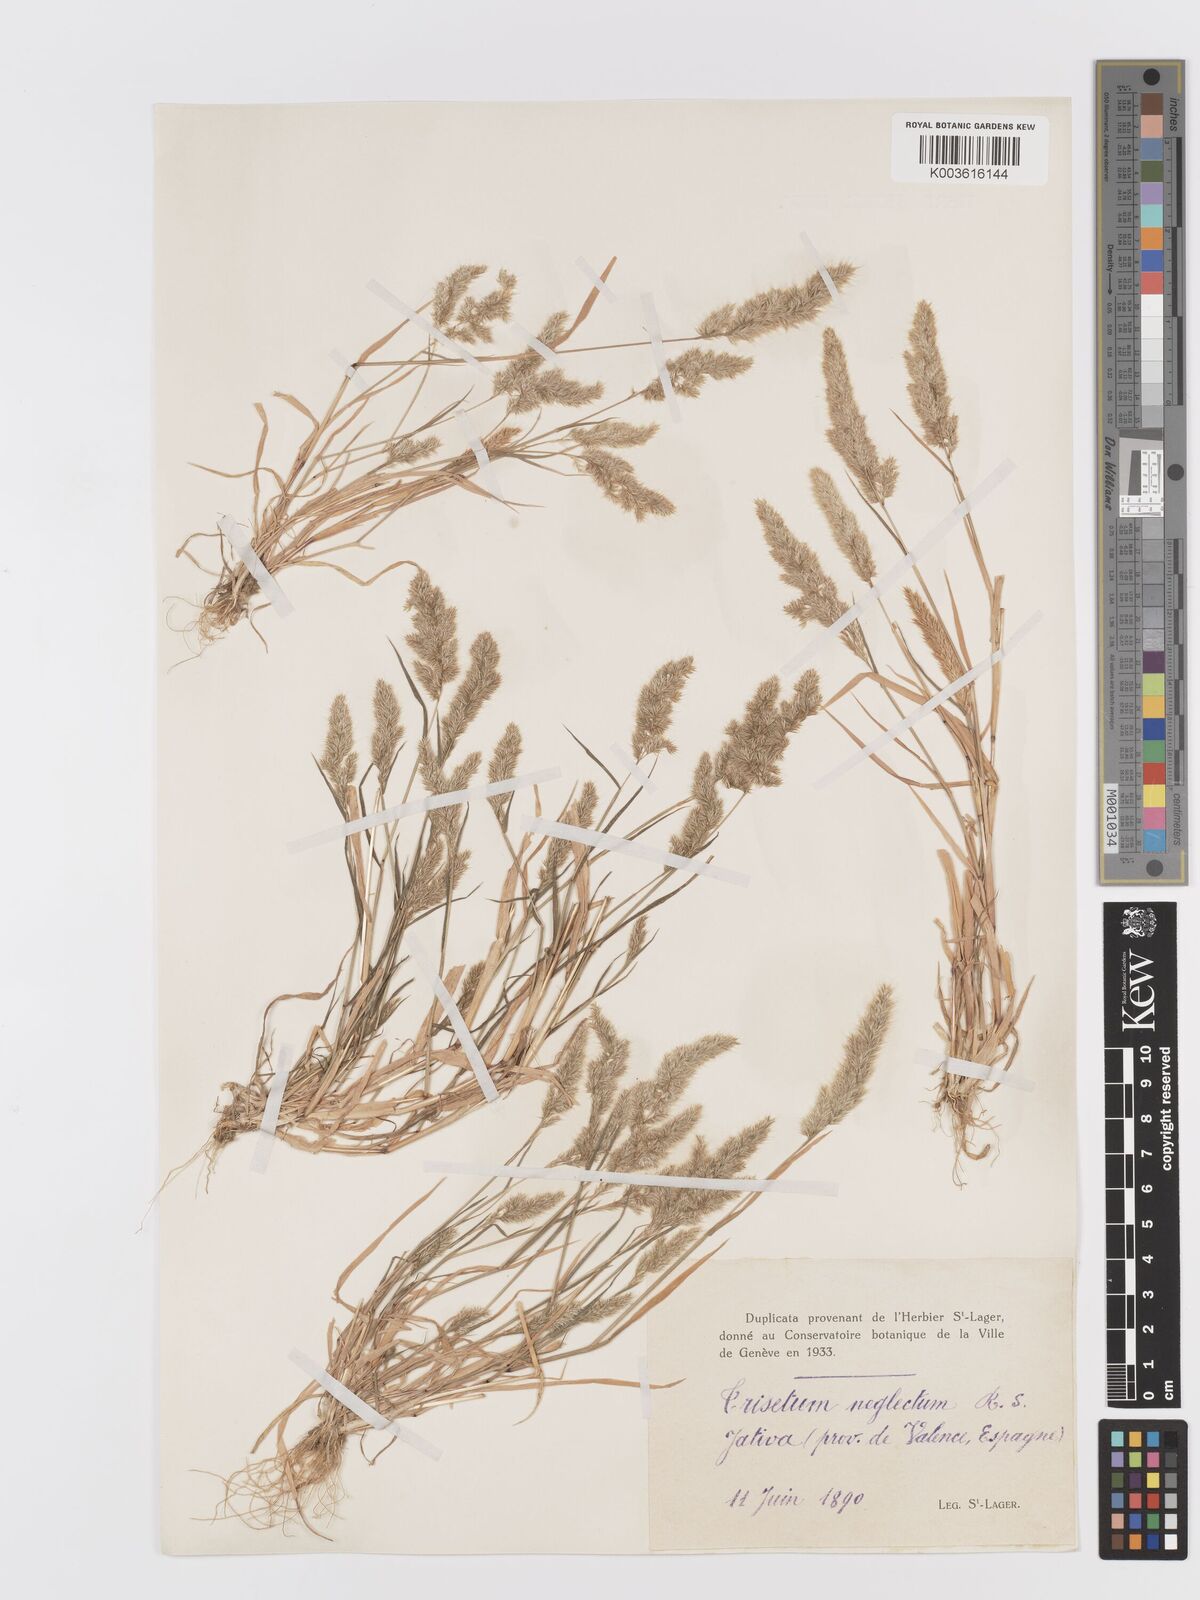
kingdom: Plantae
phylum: Tracheophyta
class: Liliopsida
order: Poales
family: Poaceae
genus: Trisetaria
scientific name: Trisetaria panicea
